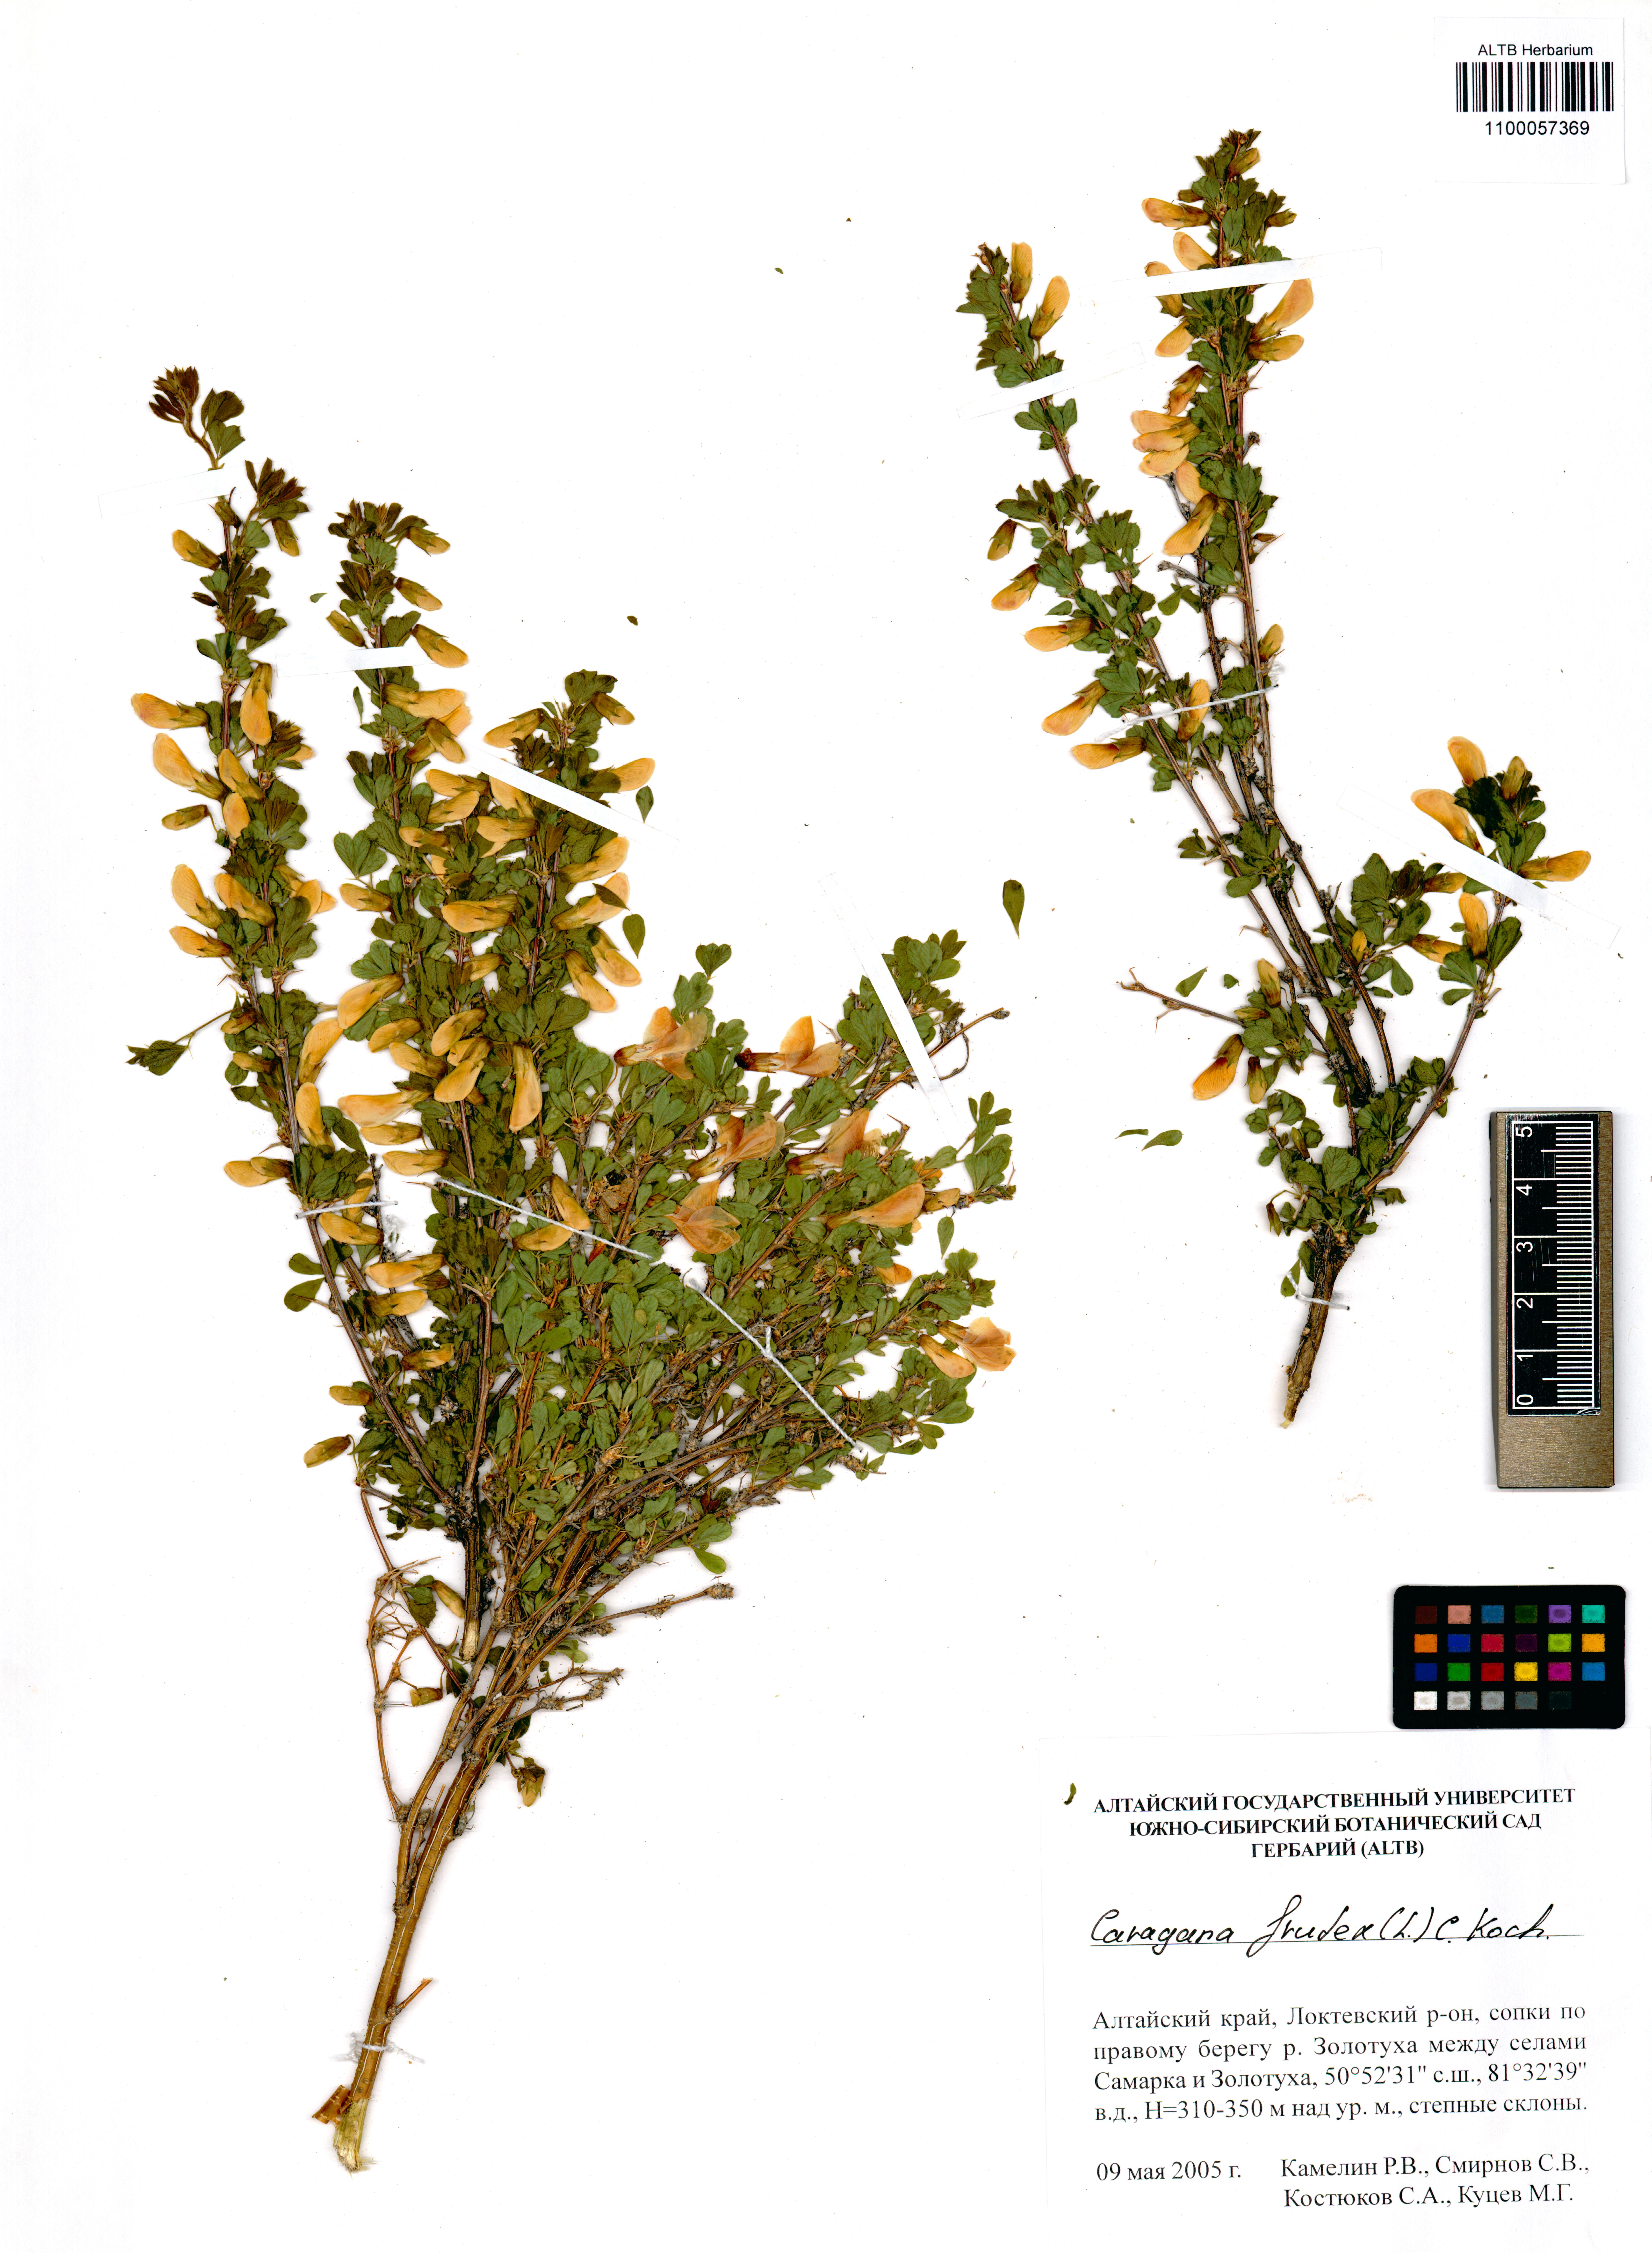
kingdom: Plantae
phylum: Tracheophyta
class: Magnoliopsida
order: Fabales
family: Fabaceae
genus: Caragana
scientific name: Caragana frutex
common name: Russian peashrub
